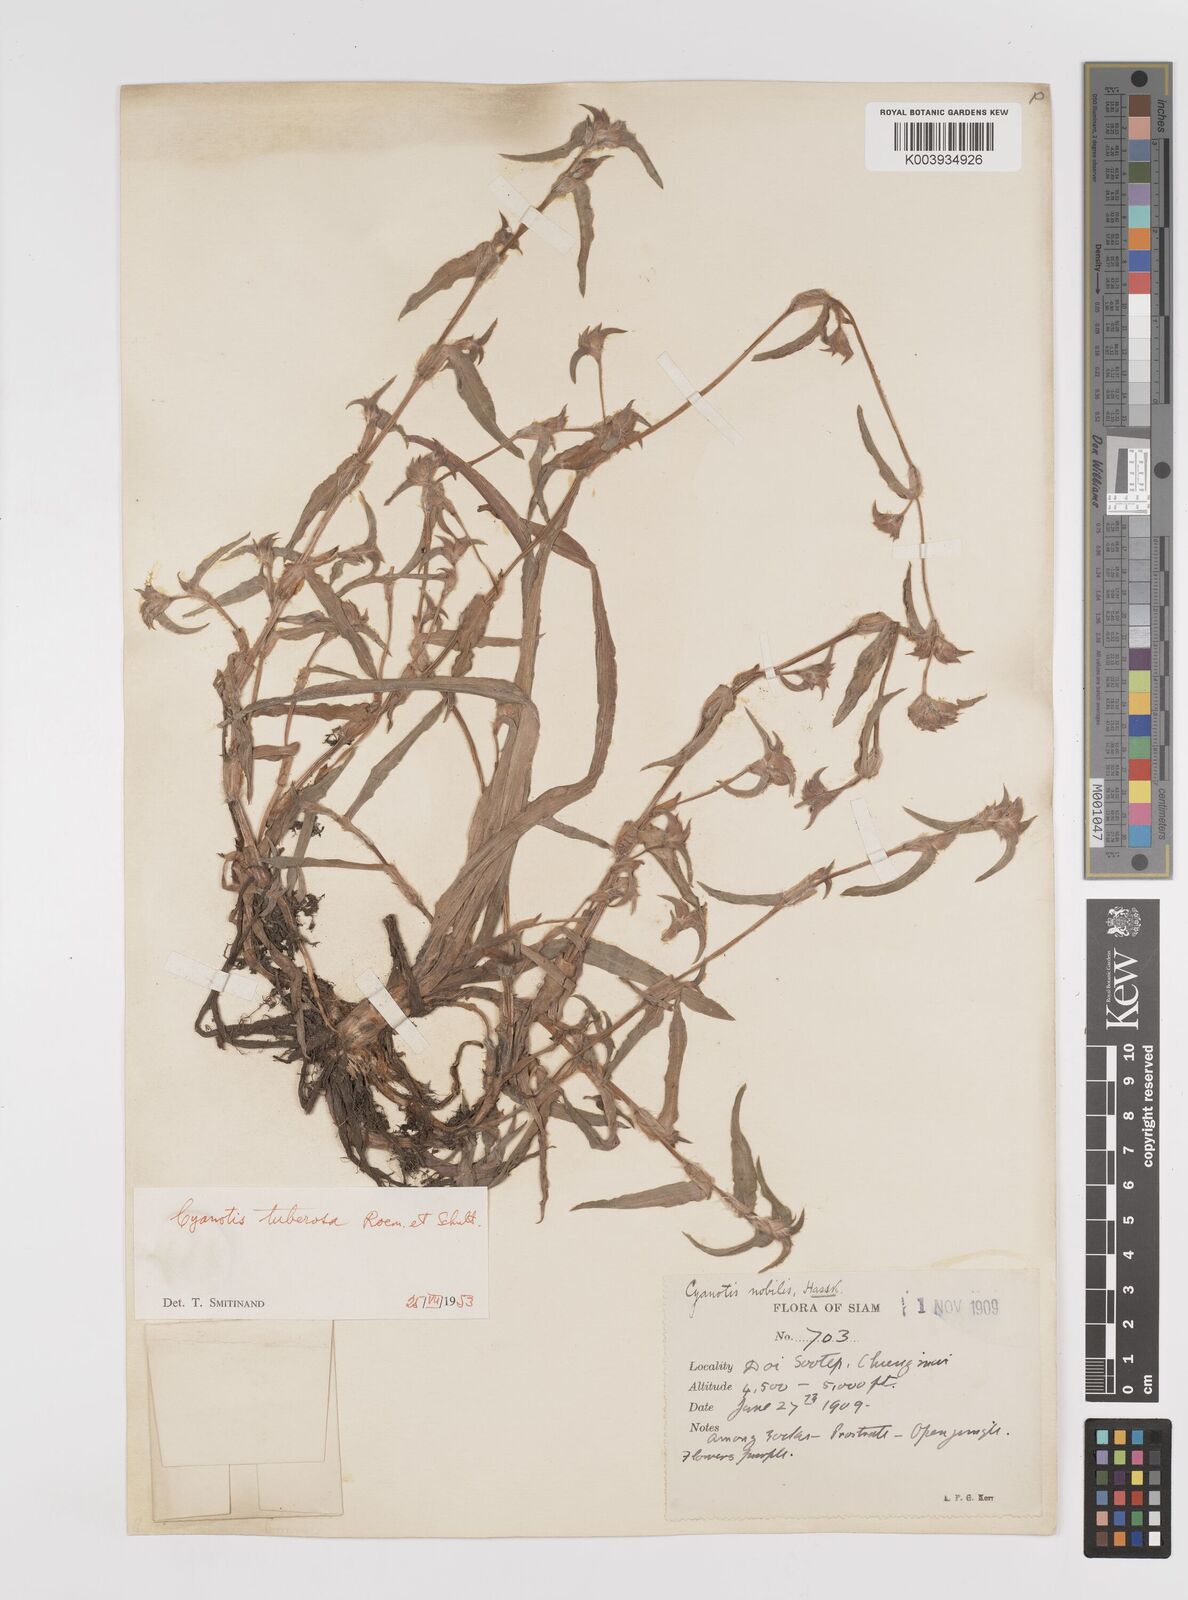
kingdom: Plantae
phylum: Tracheophyta
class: Liliopsida
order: Commelinales
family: Commelinaceae
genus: Cyanotis
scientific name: Cyanotis tuberosa
